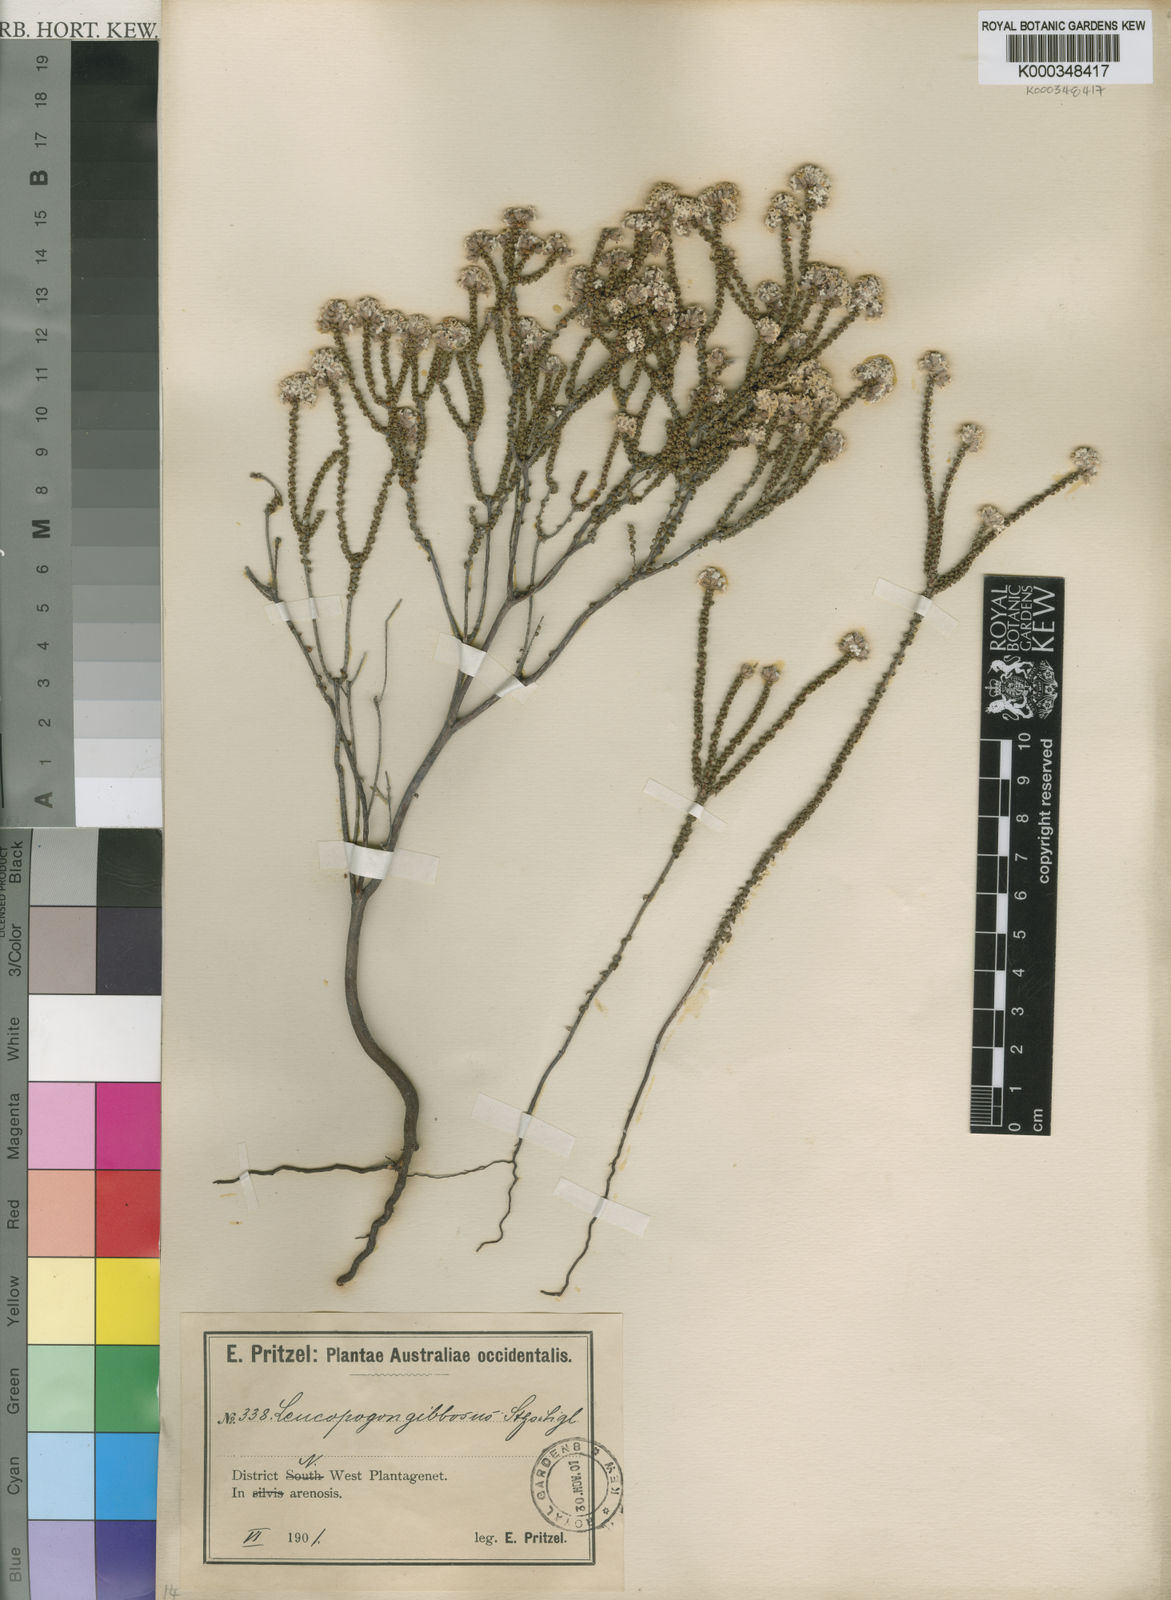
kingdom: Plantae
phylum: Tracheophyta
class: Magnoliopsida
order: Ericales
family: Ericaceae
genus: Leucopogon
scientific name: Leucopogon gibbosus
